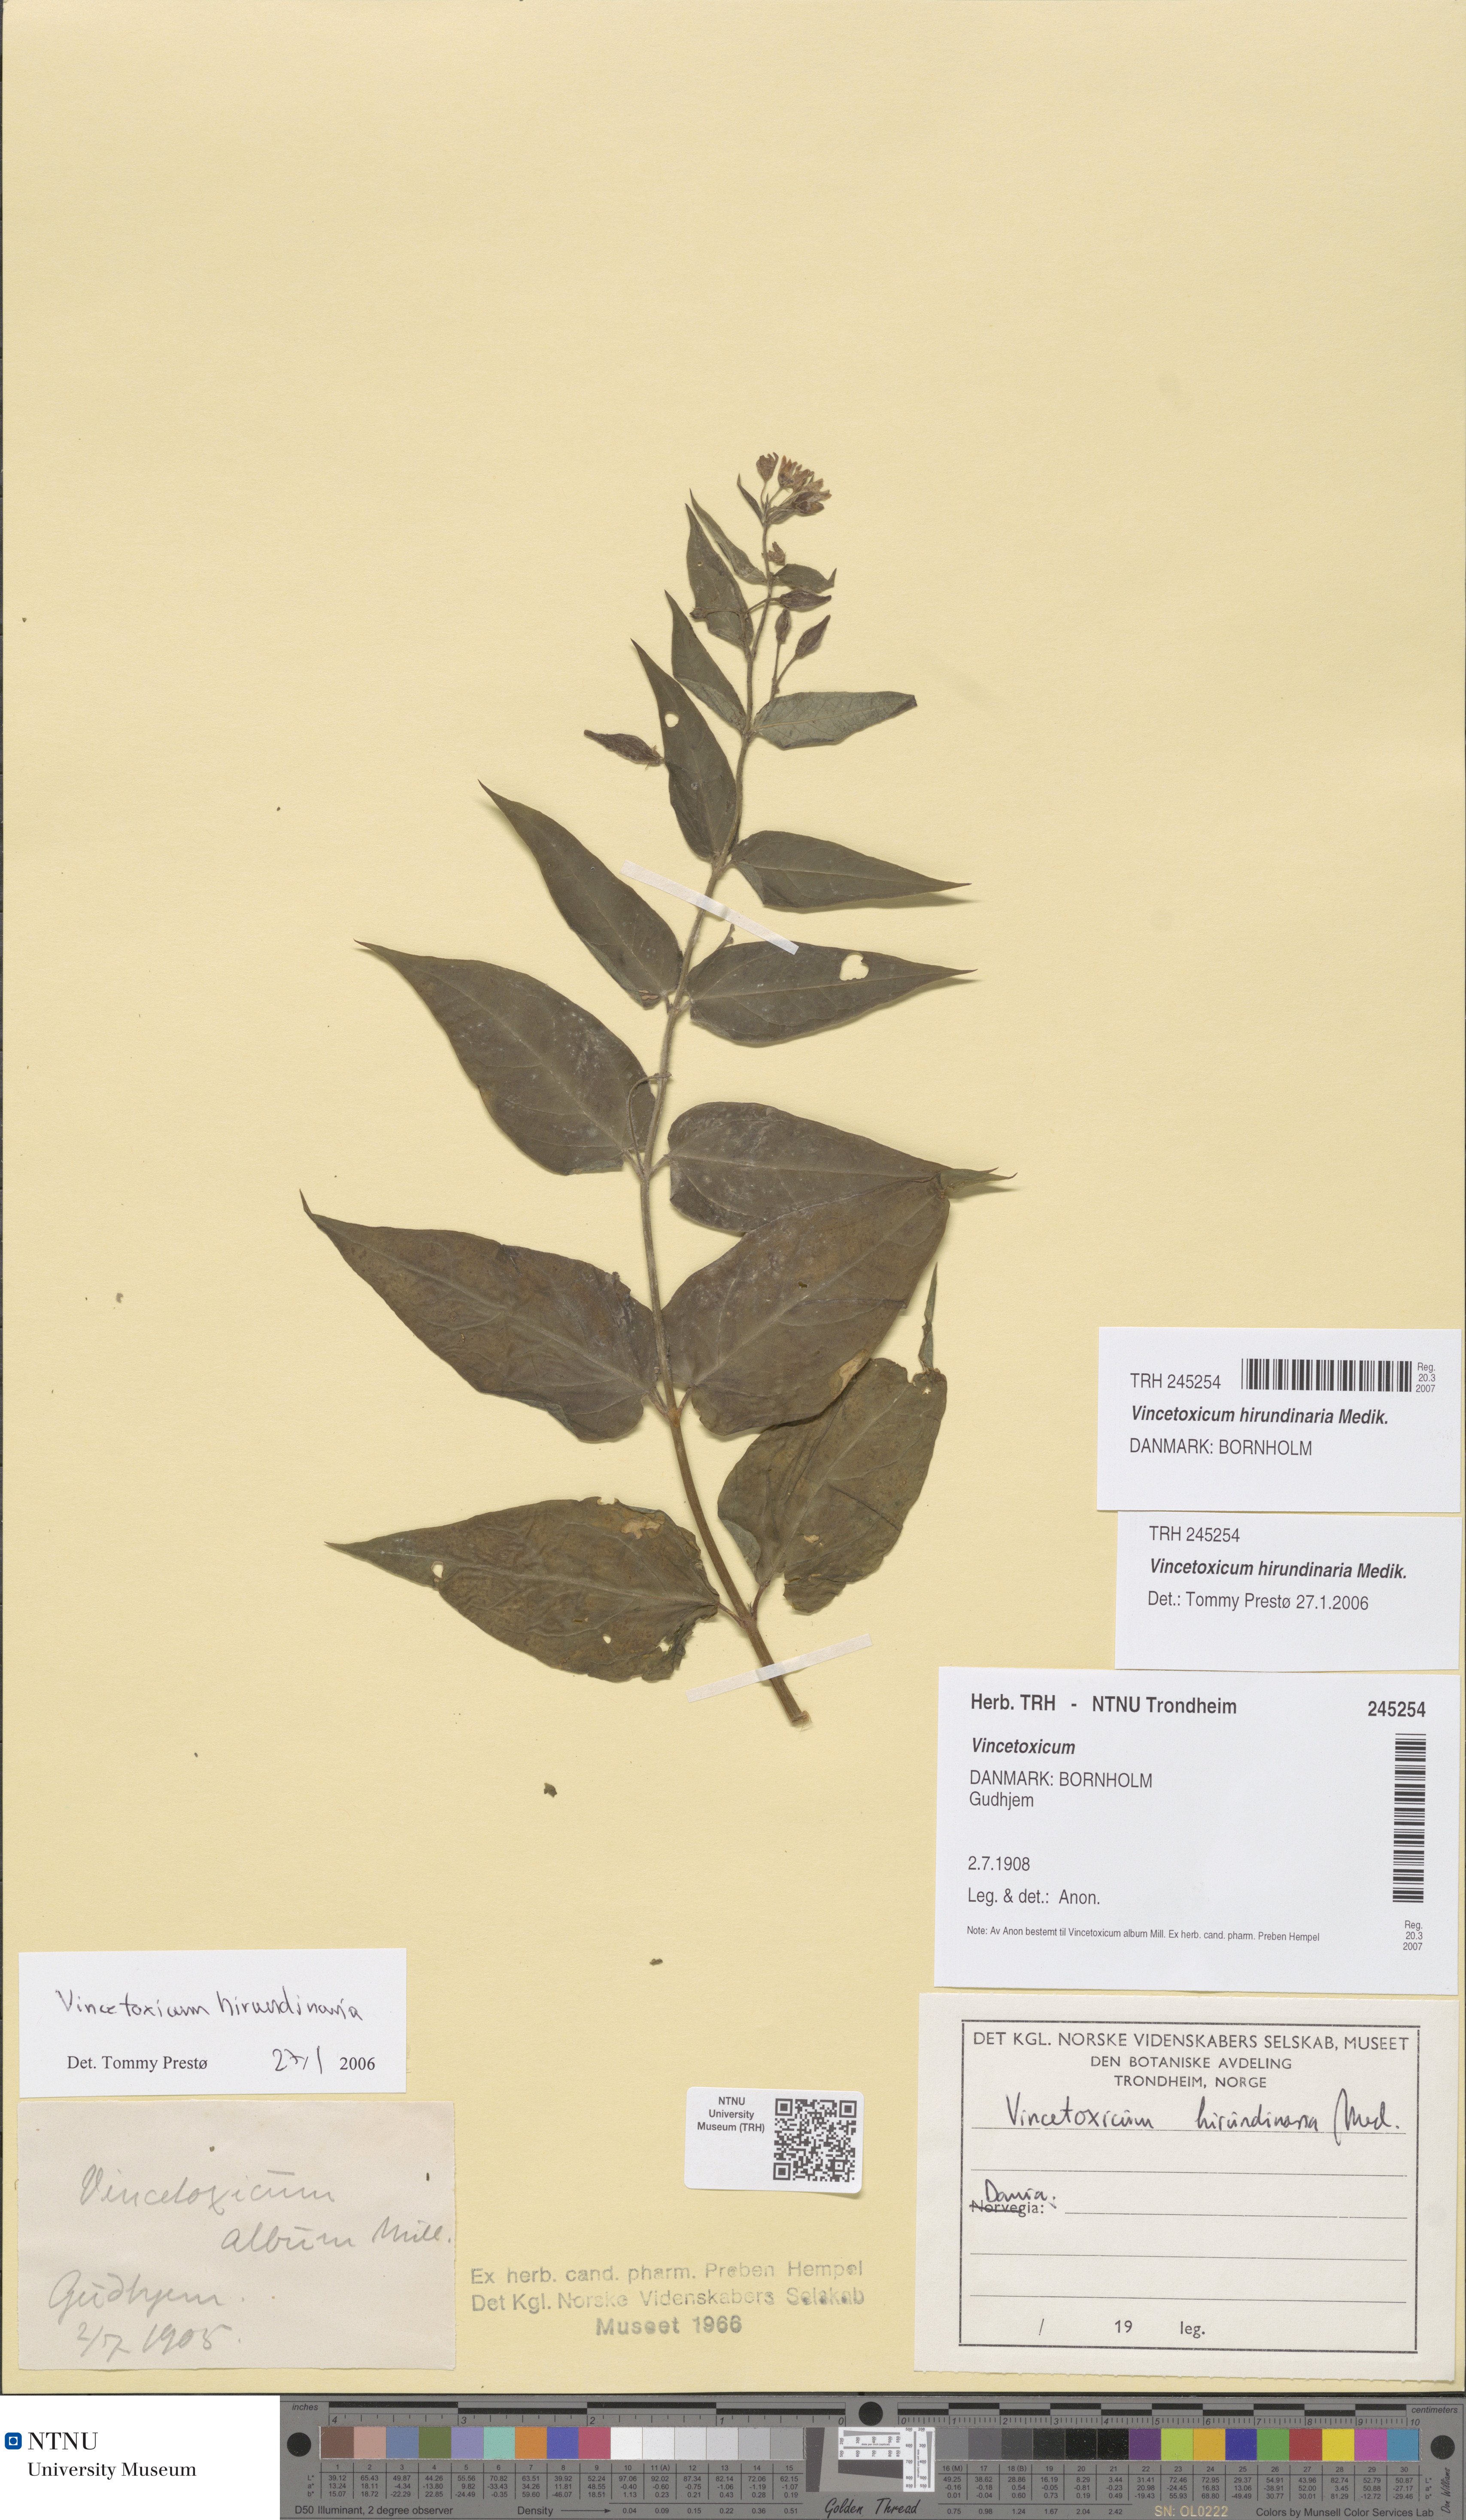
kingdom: Plantae
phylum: Tracheophyta
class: Magnoliopsida
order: Gentianales
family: Apocynaceae
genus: Vincetoxicum
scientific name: Vincetoxicum hirundinaria
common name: White swallowwort
